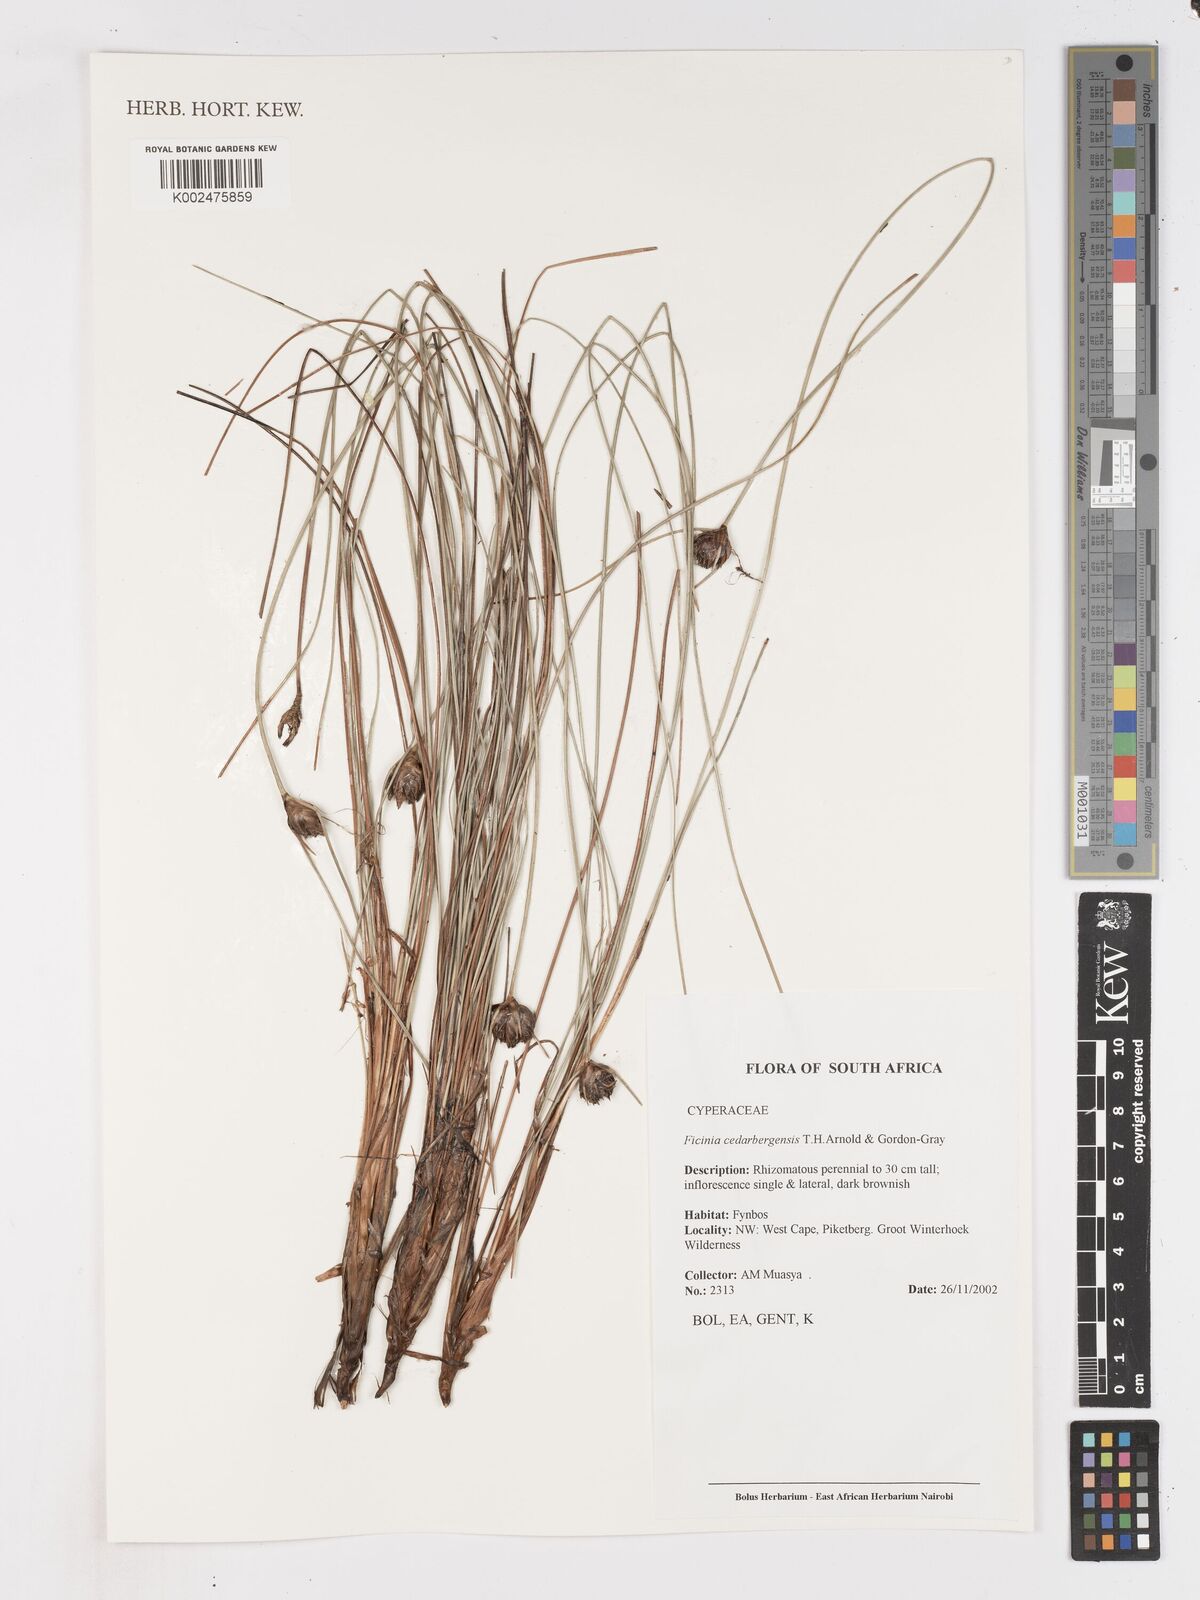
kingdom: Plantae
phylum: Tracheophyta
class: Liliopsida
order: Poales
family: Cyperaceae
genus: Ficinia
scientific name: Ficinia cedarbergensis
